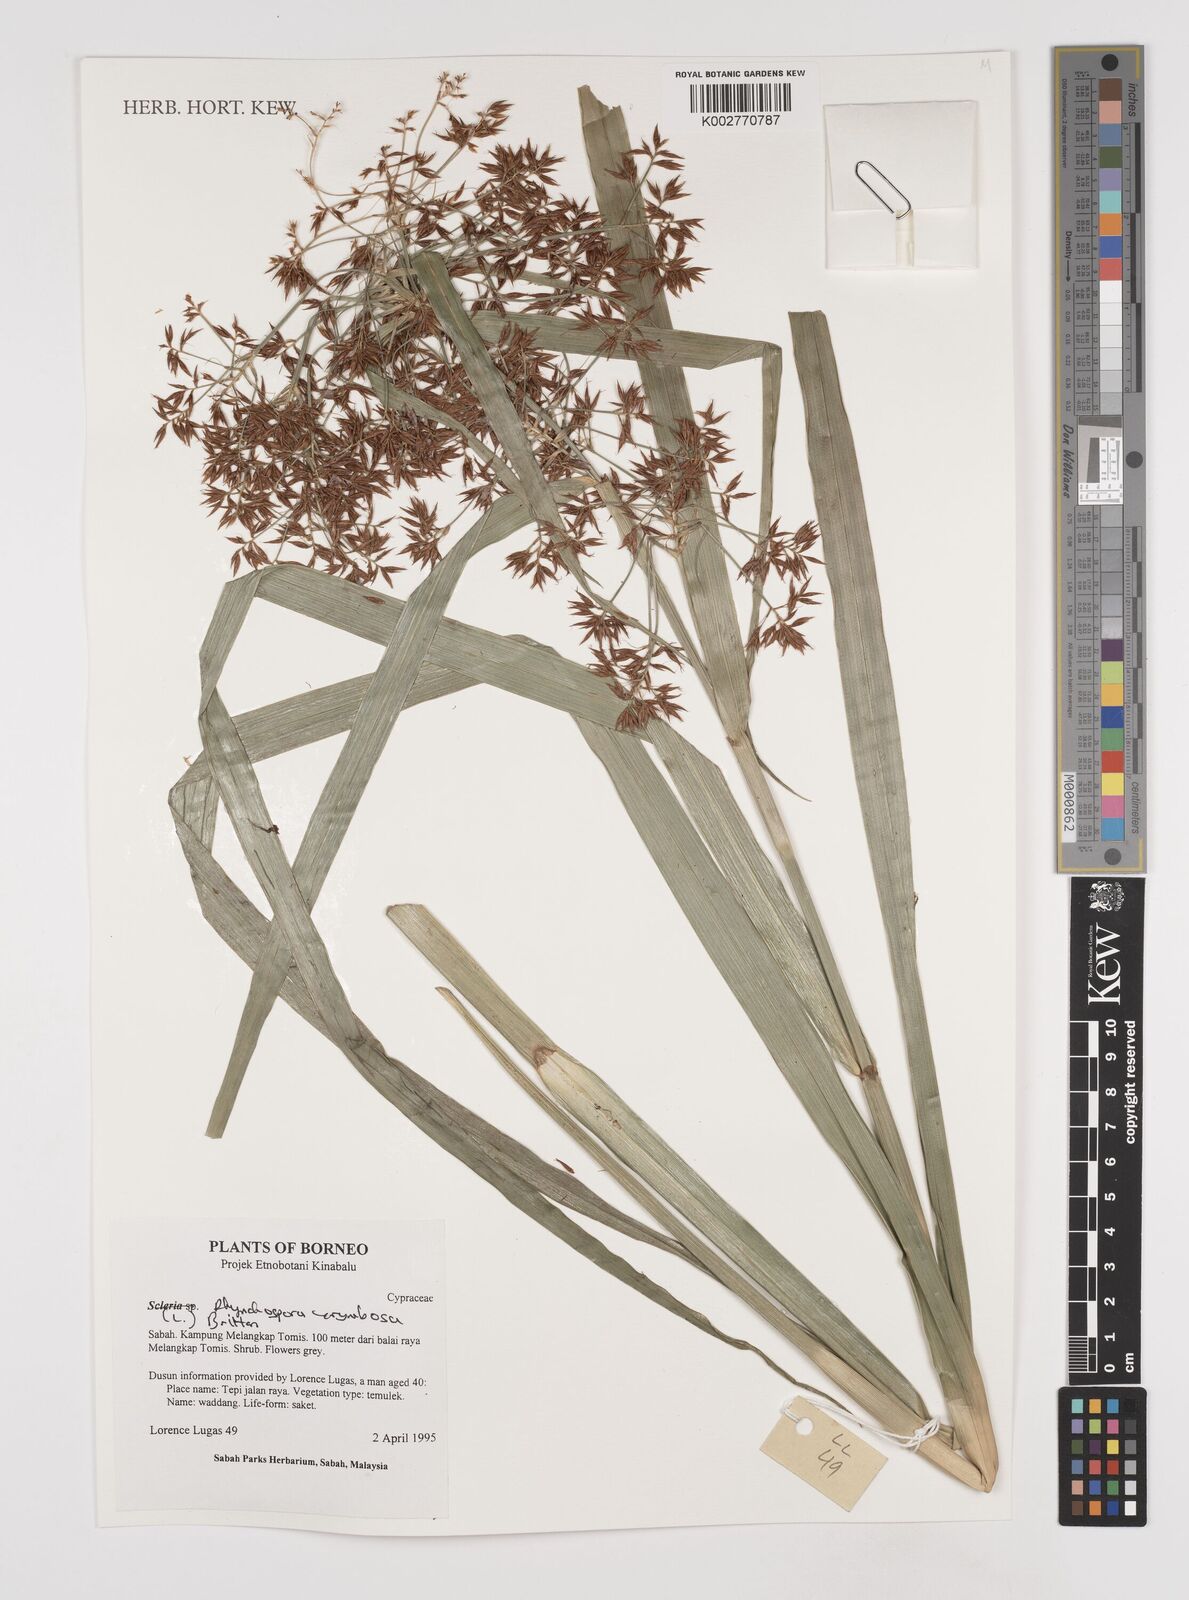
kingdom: Plantae
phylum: Tracheophyta
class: Liliopsida
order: Poales
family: Cyperaceae
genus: Rhynchospora
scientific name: Rhynchospora corymbosa
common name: Golden beak sedge
